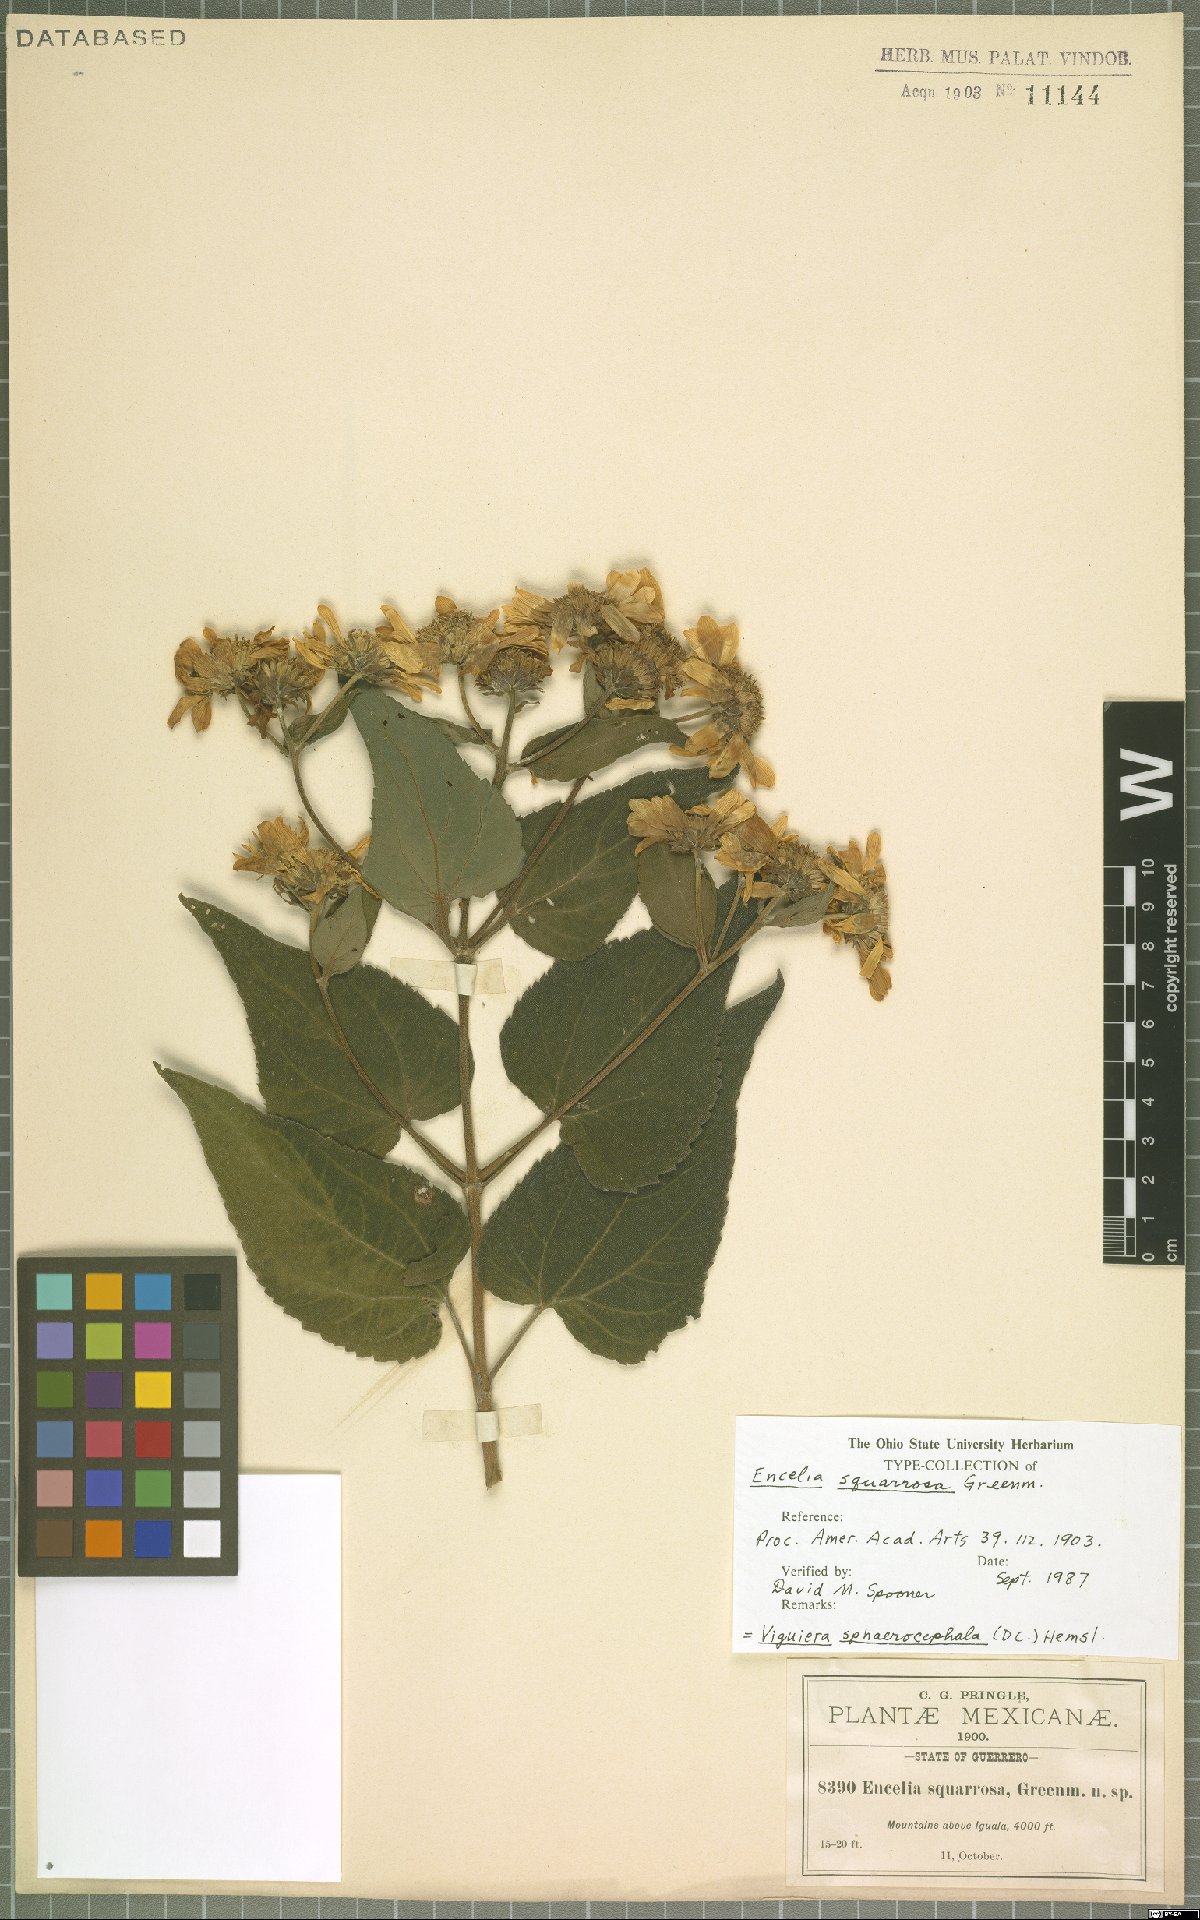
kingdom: Plantae
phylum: Tracheophyta
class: Magnoliopsida
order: Asterales
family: Asteraceae
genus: Dendroviguiera
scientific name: Dendroviguiera sphaerocephala
